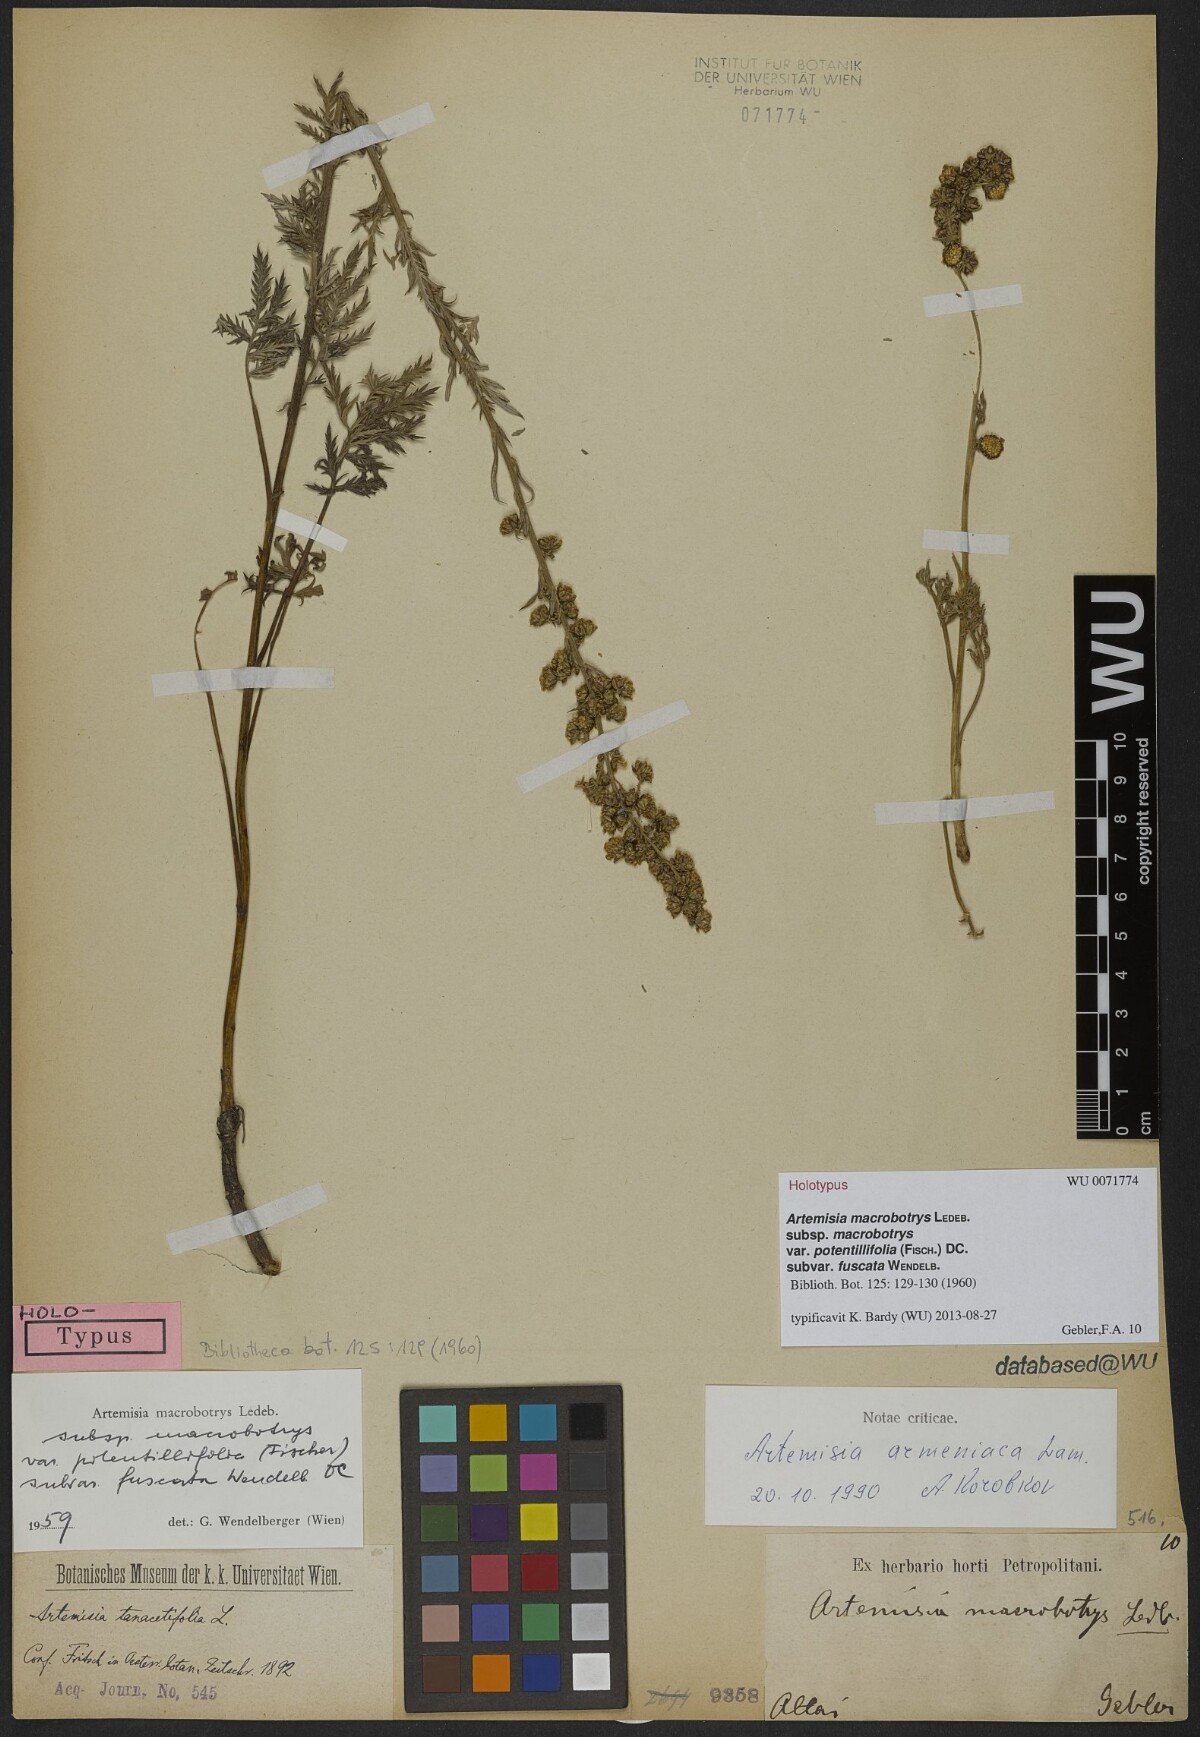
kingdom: Plantae
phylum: Tracheophyta
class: Magnoliopsida
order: Asterales
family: Asteraceae
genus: Artemisia
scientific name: Artemisia laciniata
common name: Siberian wormwood
